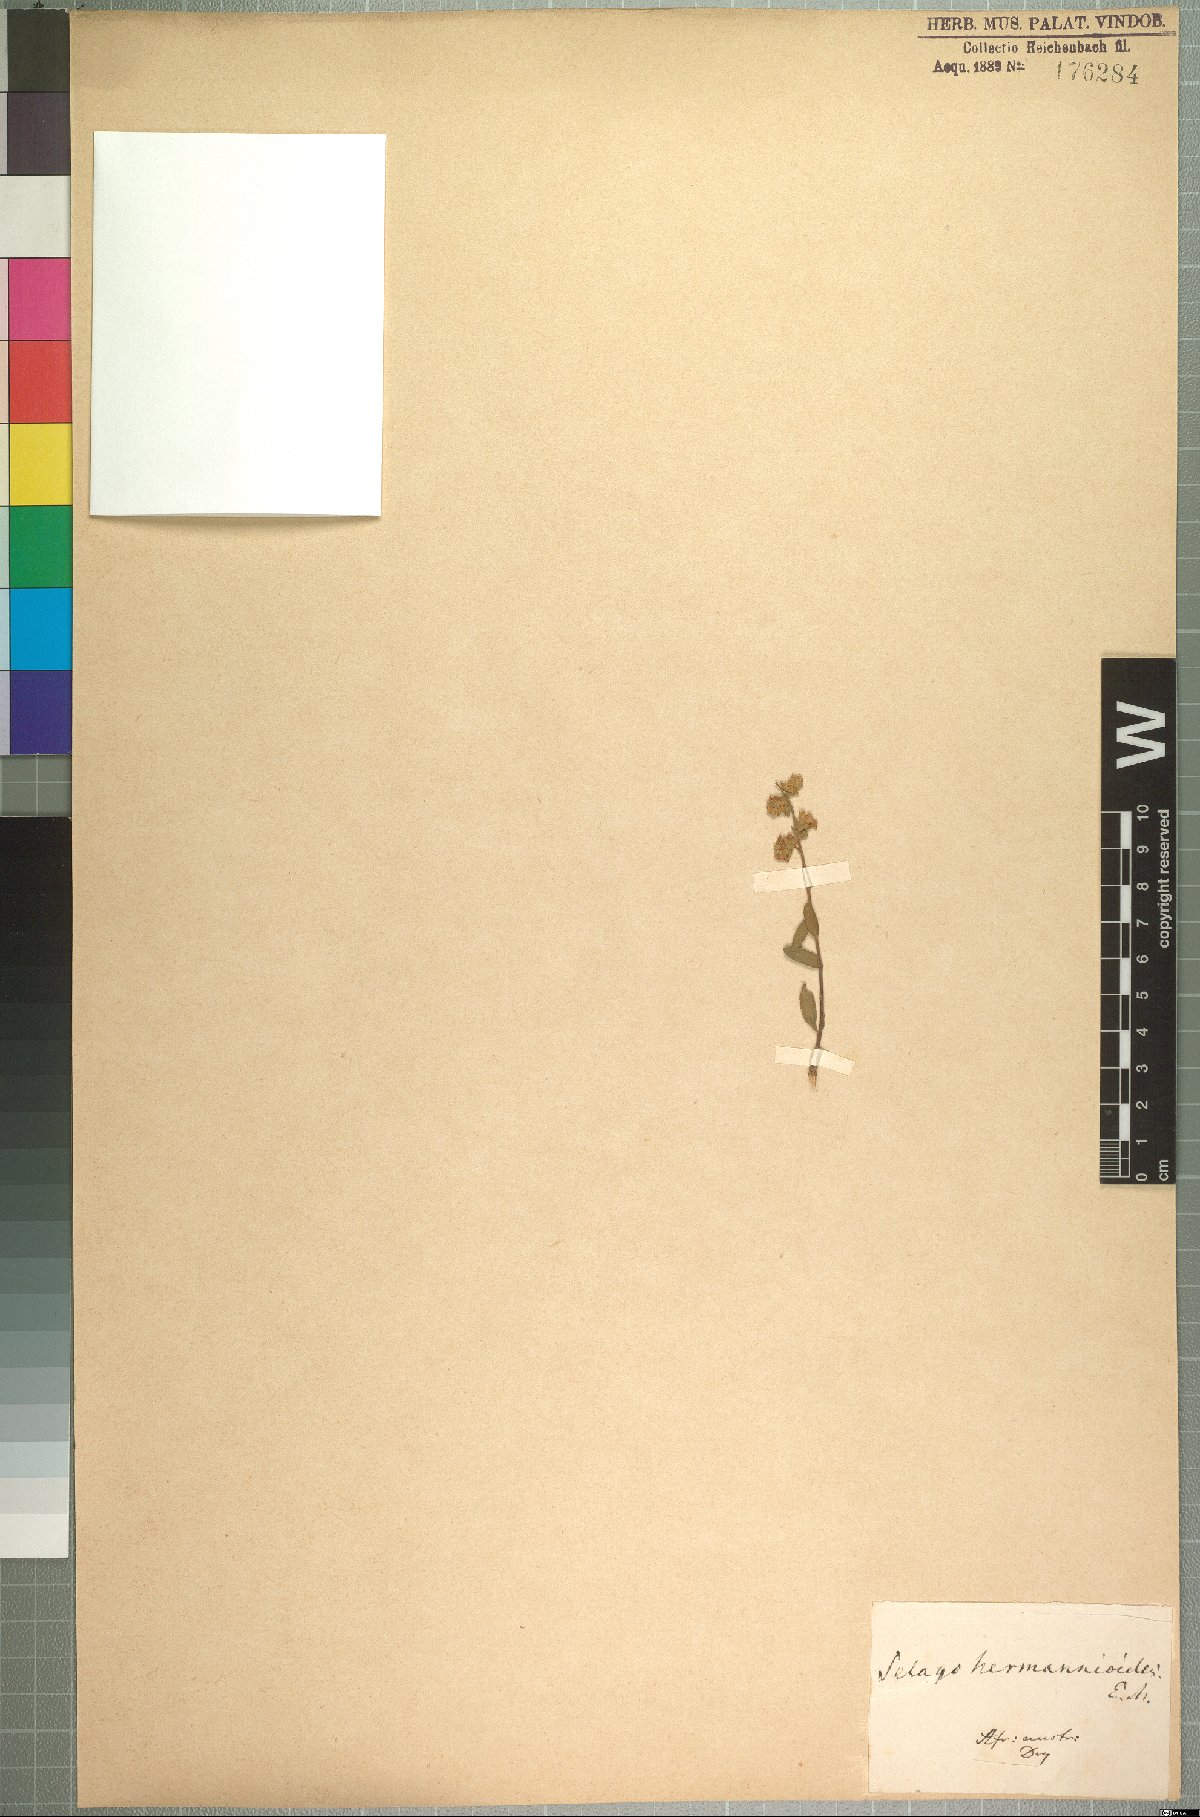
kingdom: Plantae
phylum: Tracheophyta
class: Magnoliopsida
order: Lamiales
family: Scrophulariaceae
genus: Selago
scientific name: Selago hermannioides
